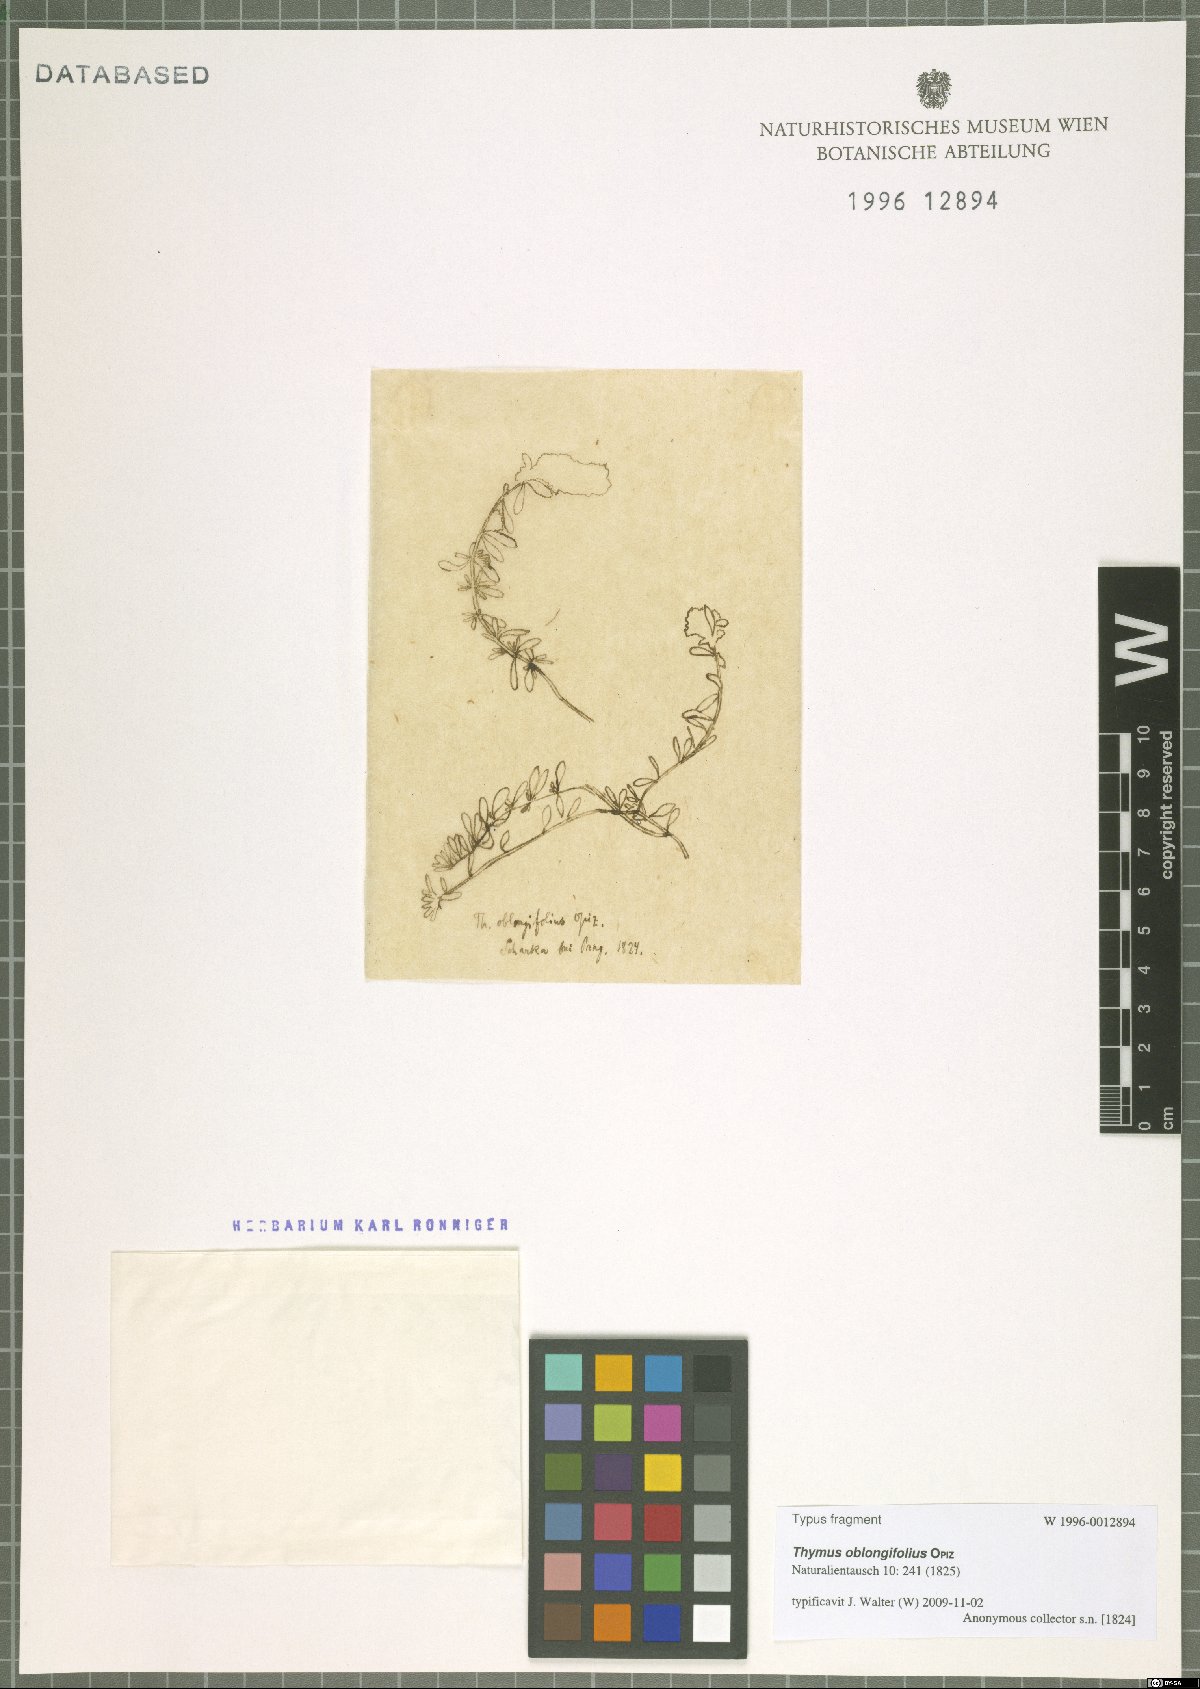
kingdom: Plantae
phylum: Tracheophyta
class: Magnoliopsida
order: Lamiales
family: Lamiaceae
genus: Thymus
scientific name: Thymus oblongifolius
